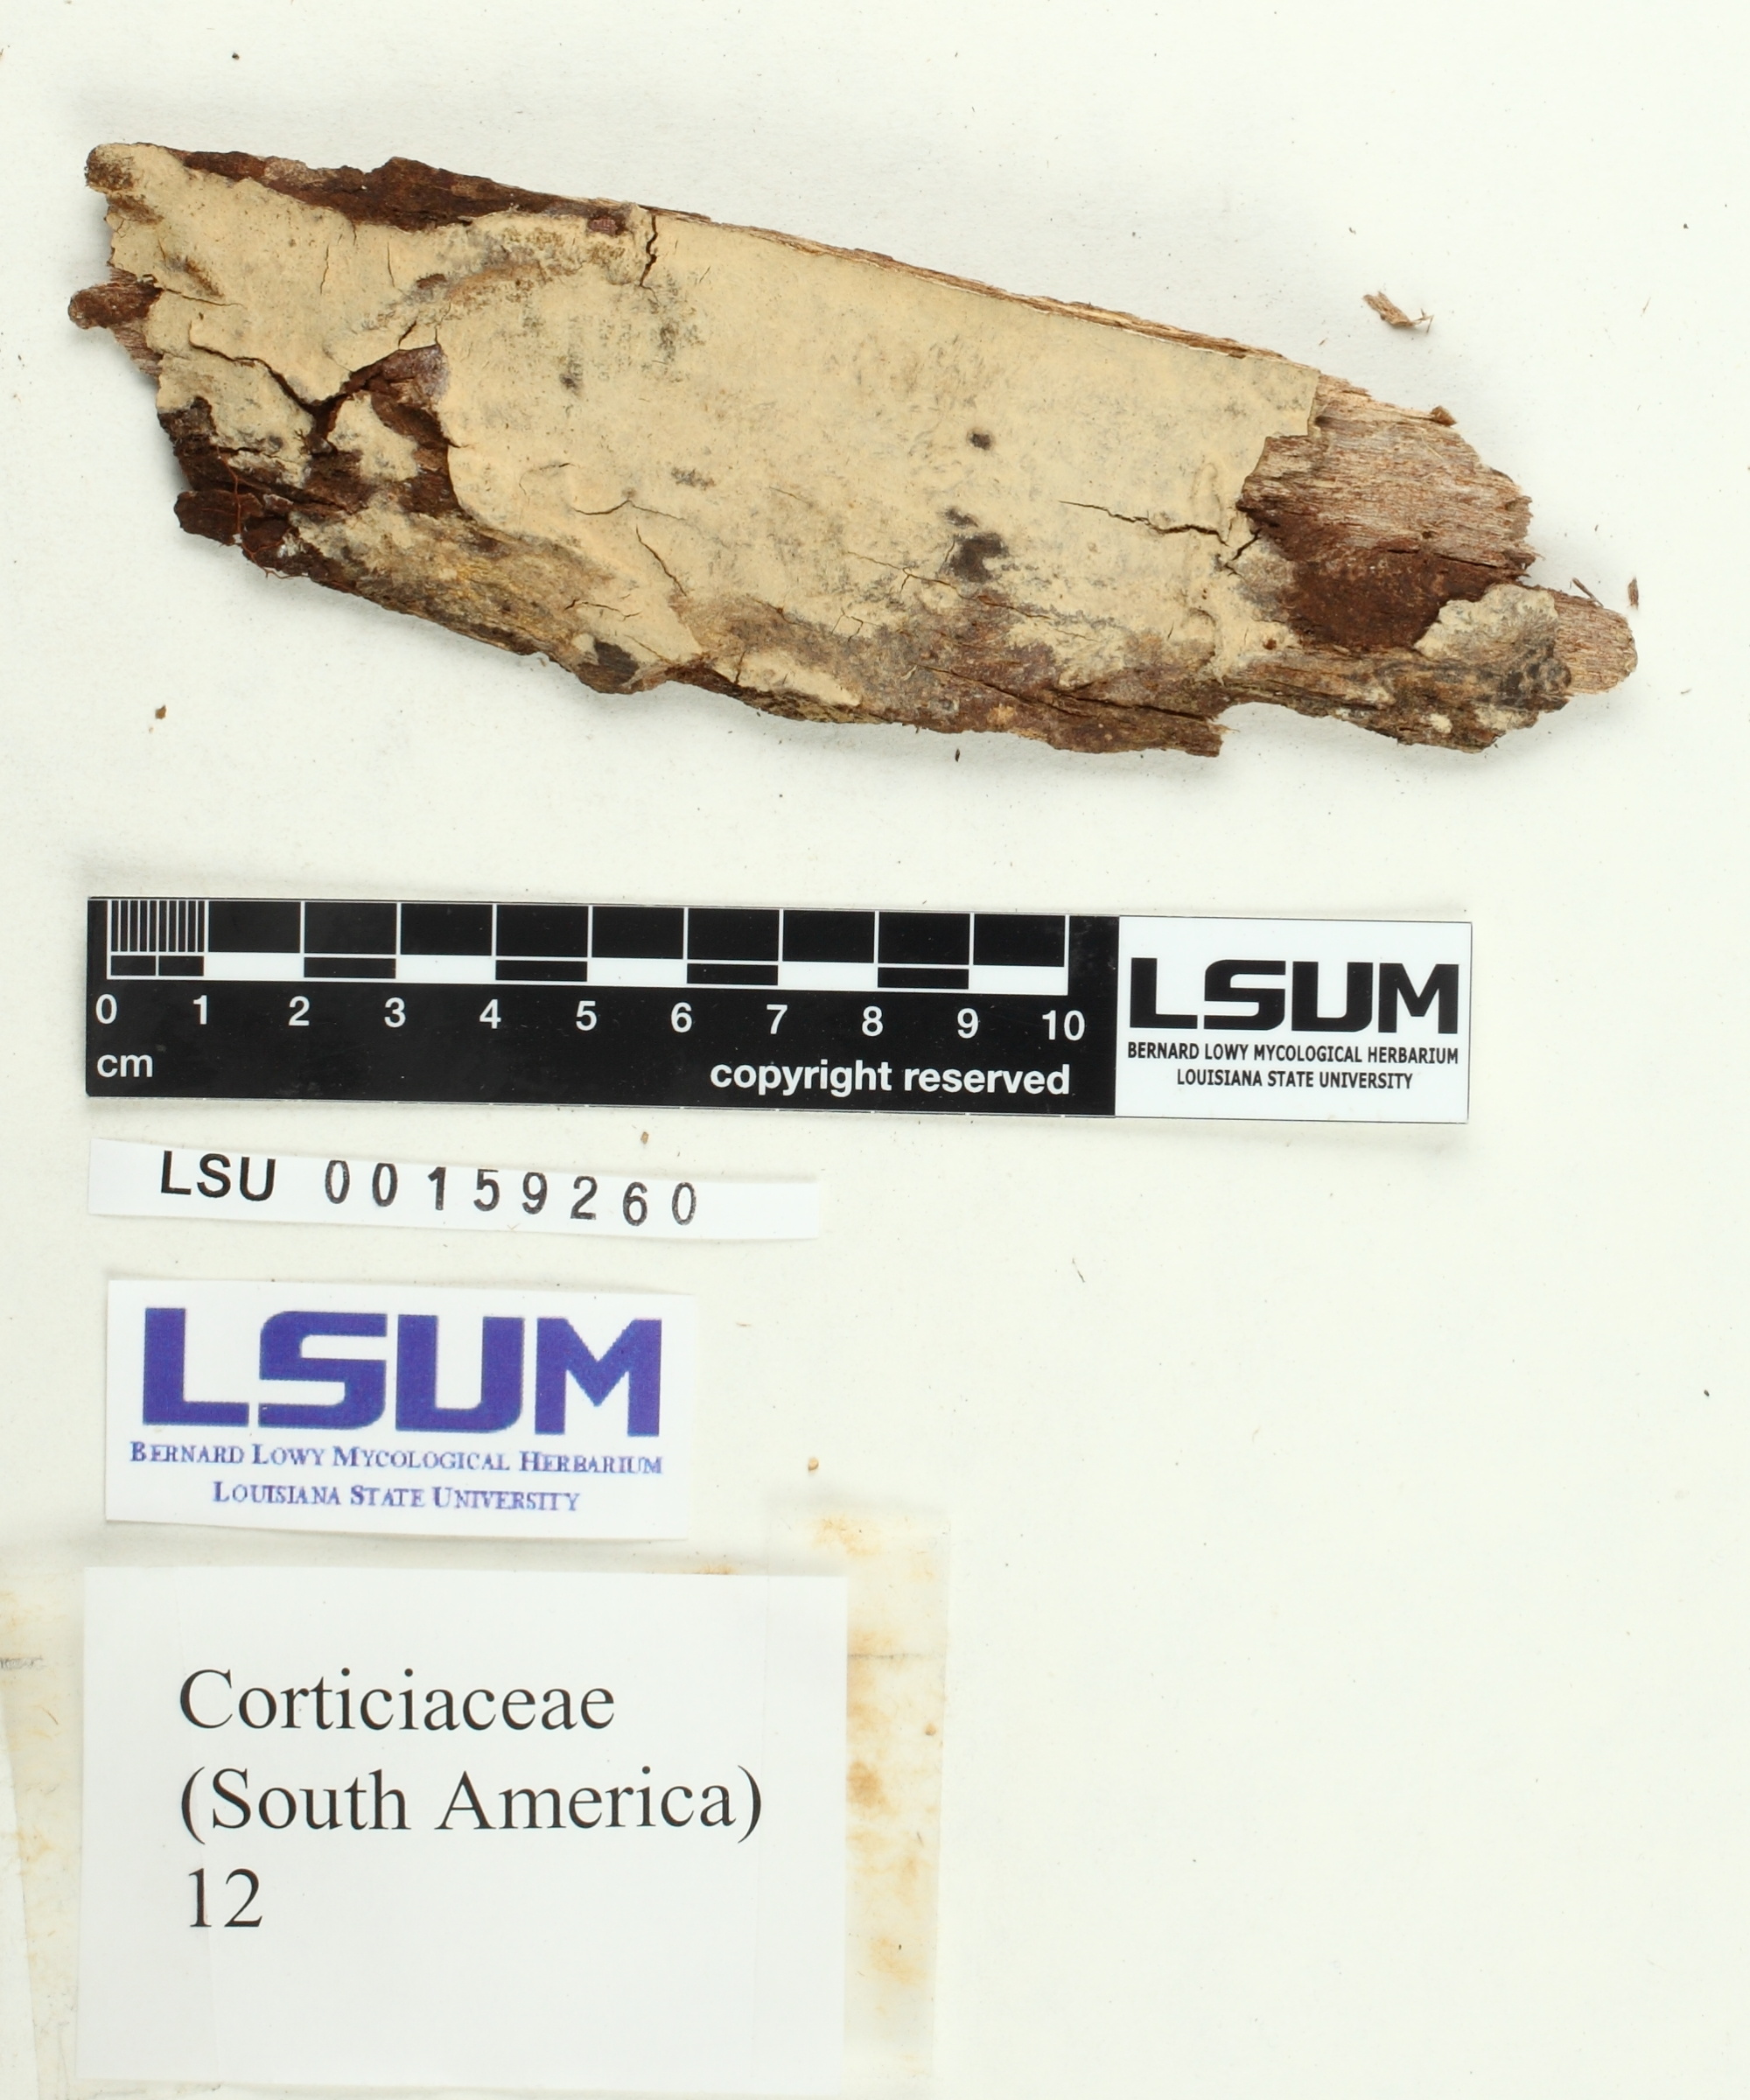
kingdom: Fungi
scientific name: Fungi
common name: Fungi
